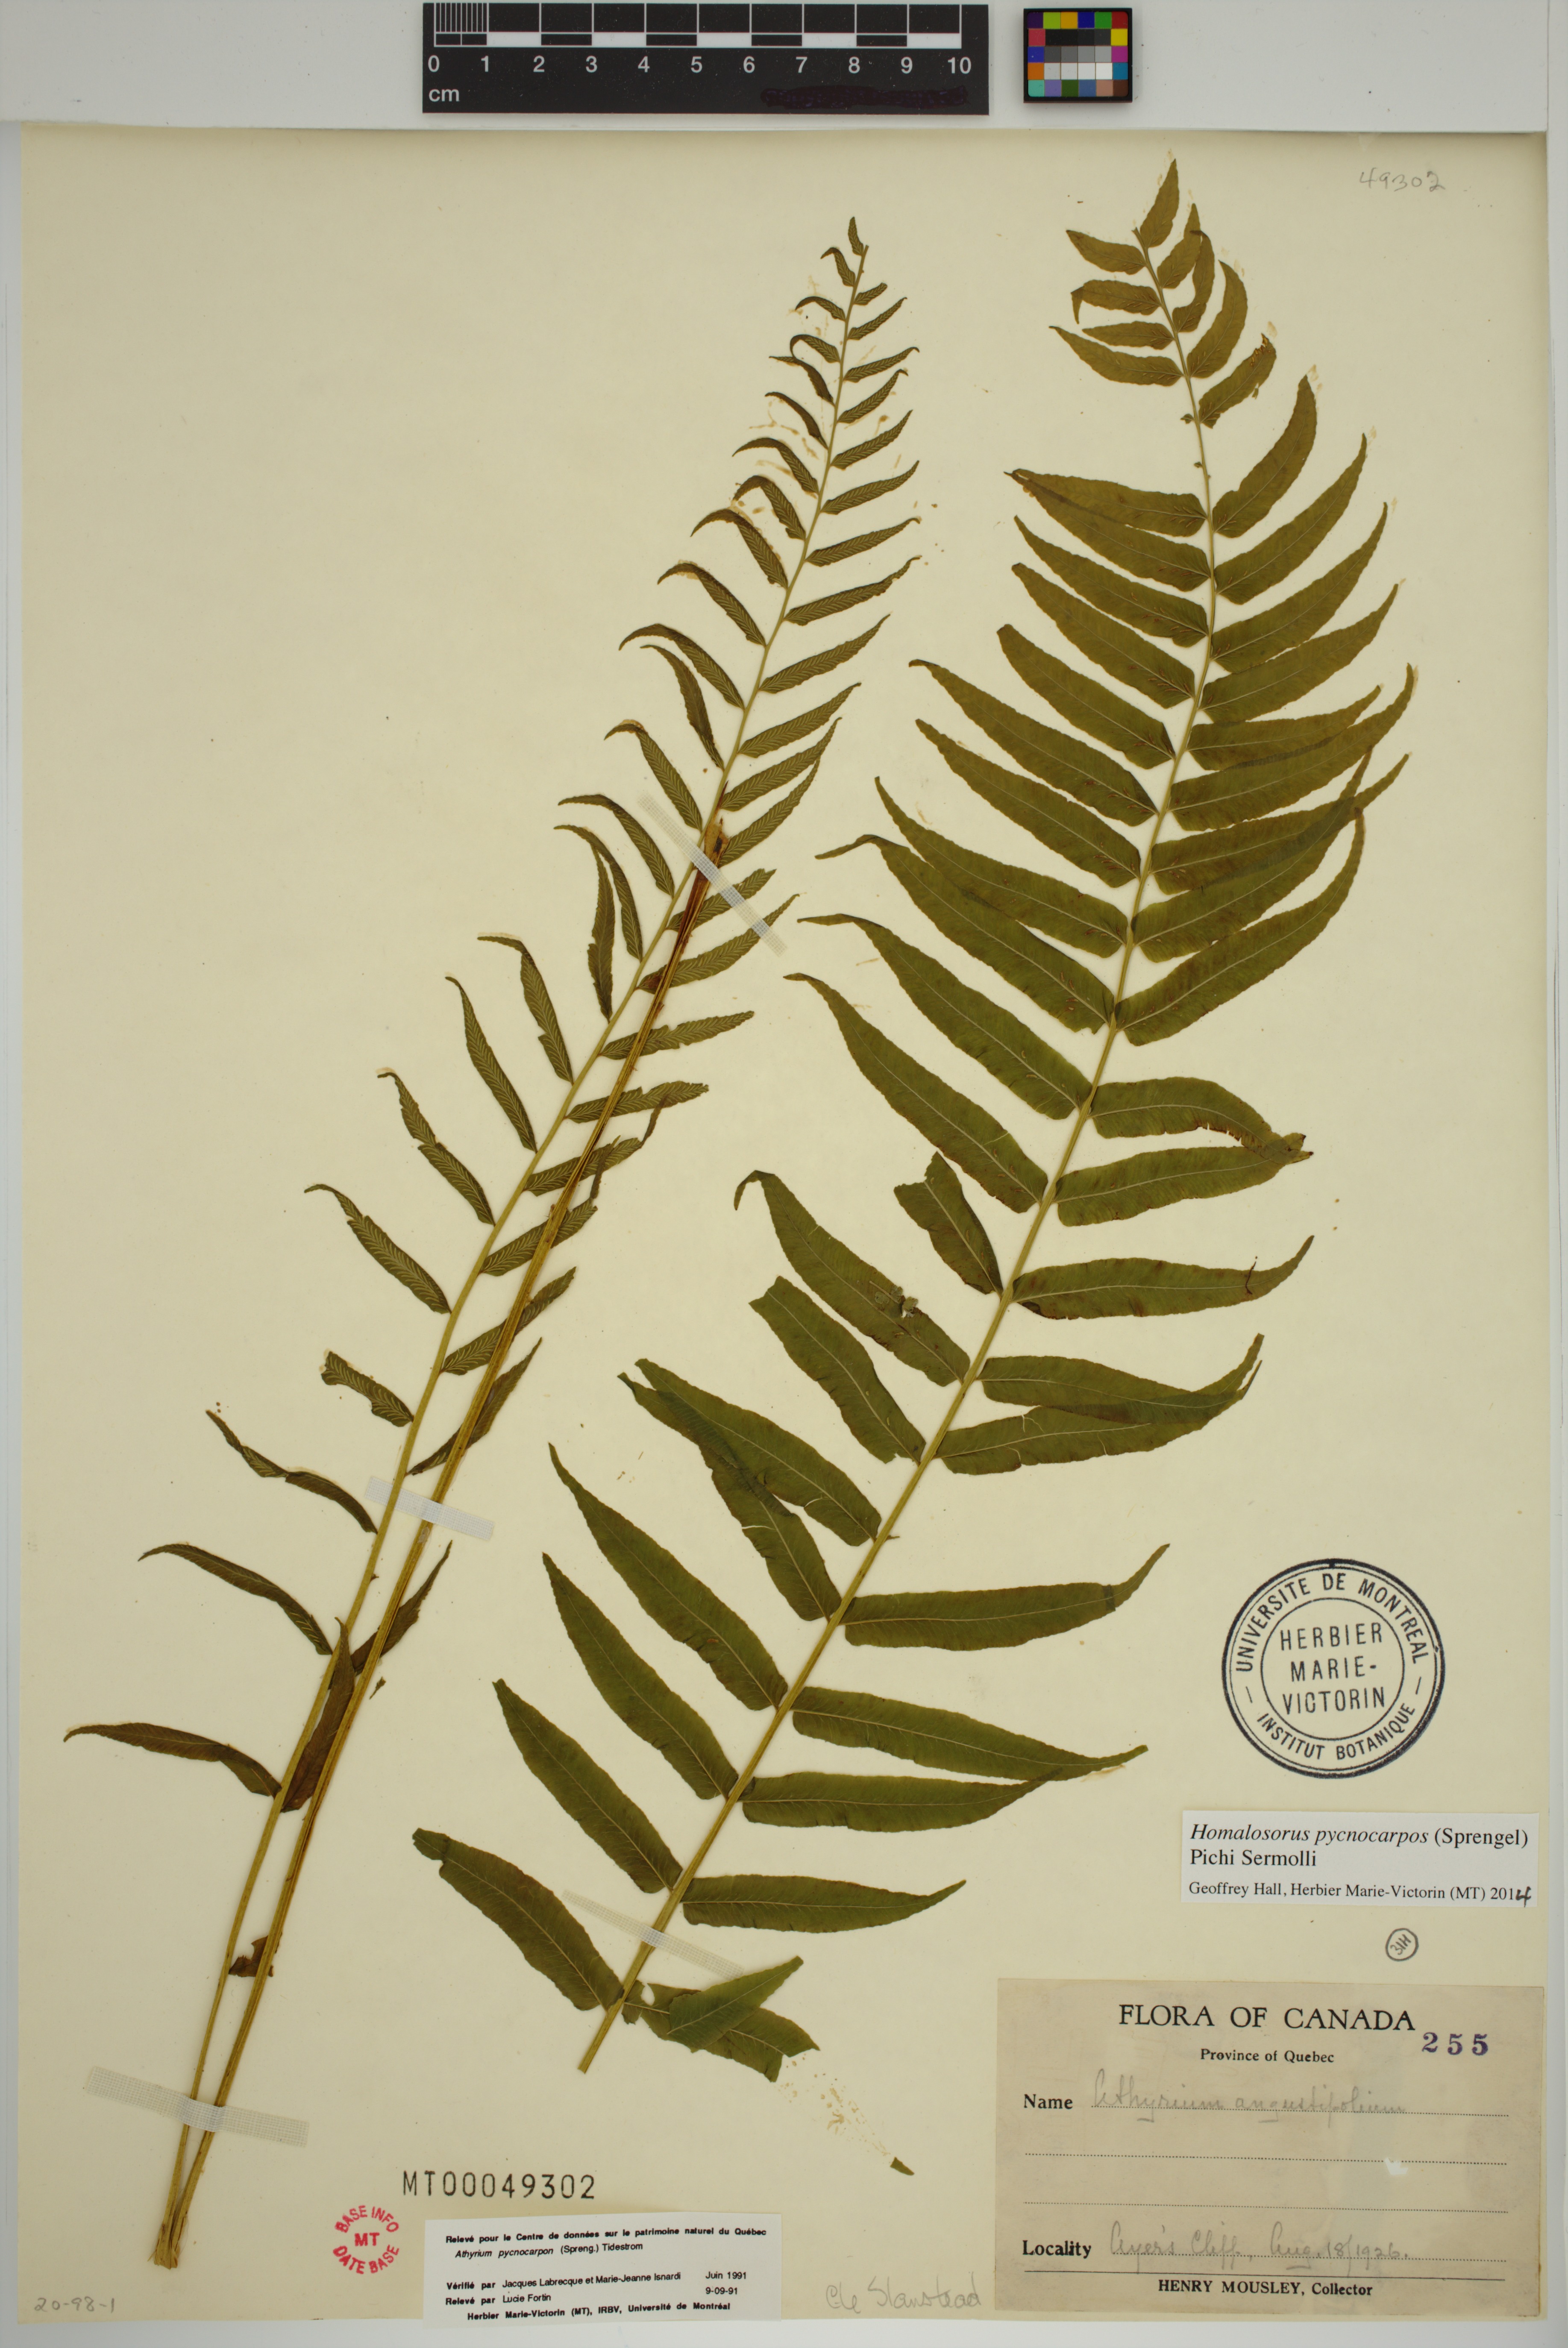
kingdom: Plantae
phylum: Tracheophyta
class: Polypodiopsida
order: Polypodiales
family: Diplaziopsidaceae
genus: Homalosorus
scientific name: Homalosorus pycnocarpos
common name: Glade fern
